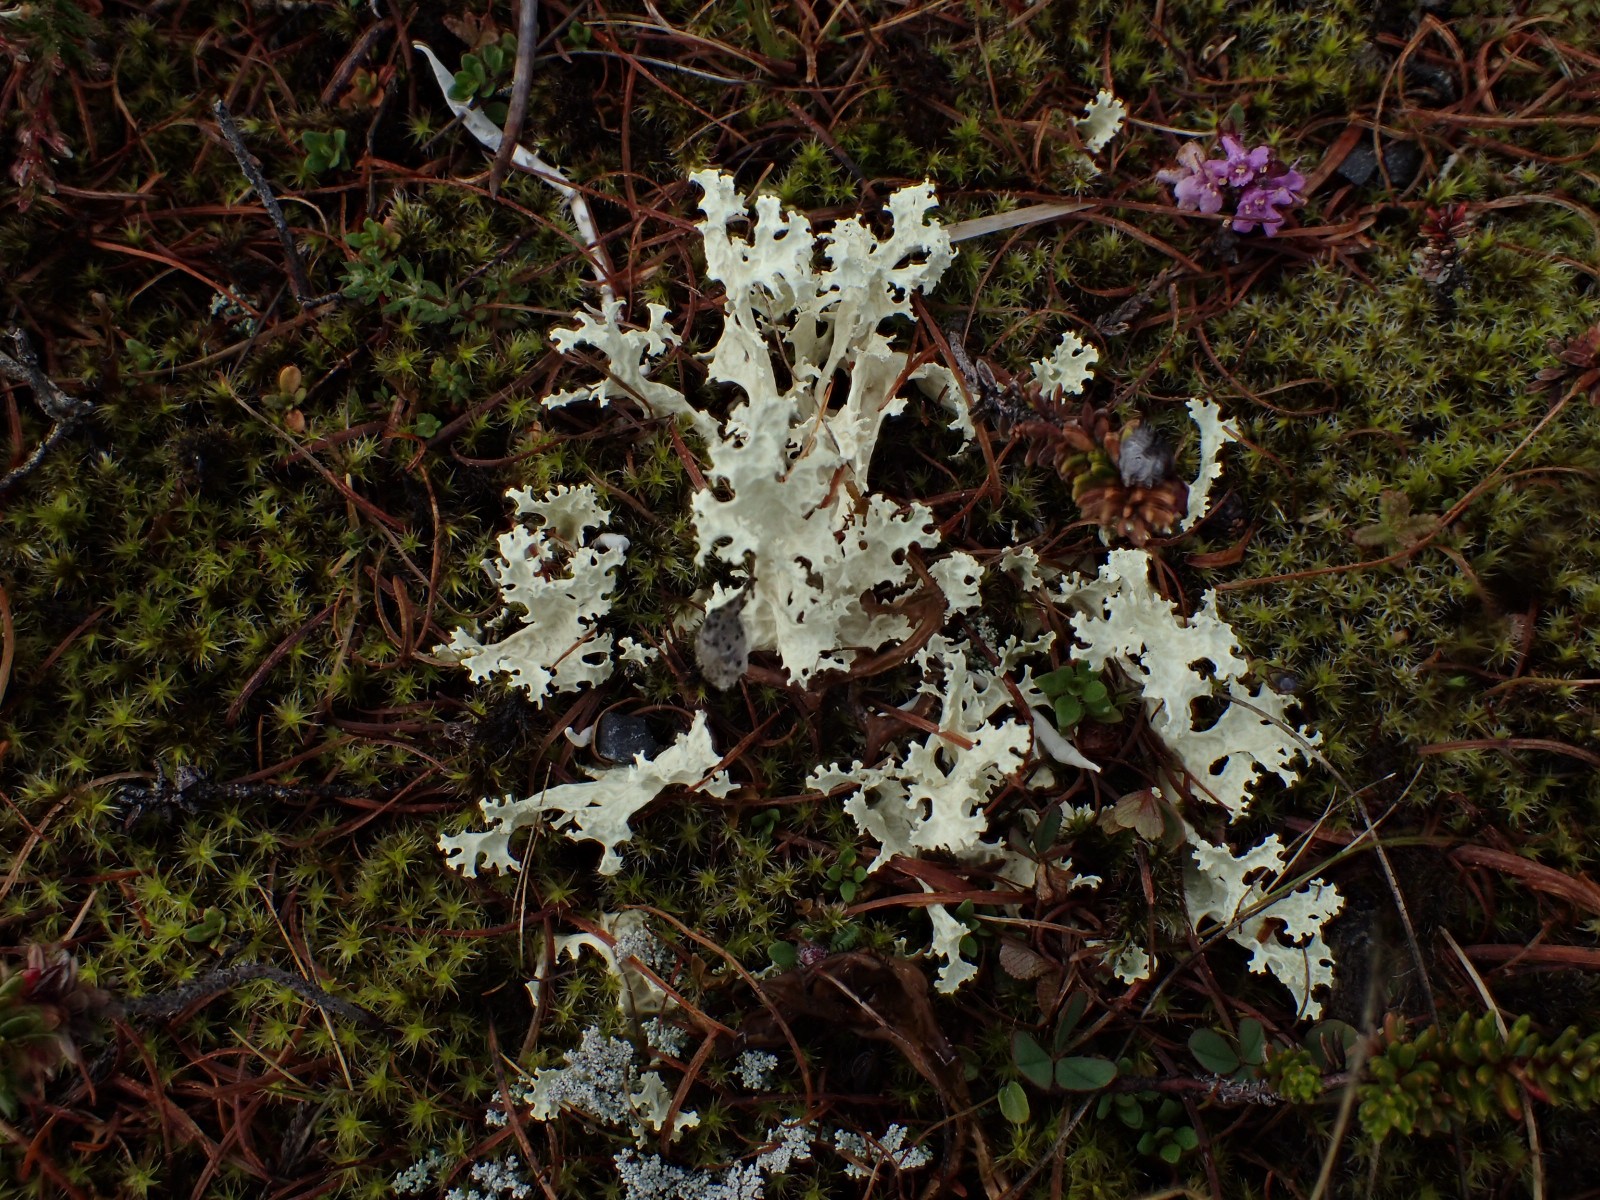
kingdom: Fungi
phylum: Ascomycota
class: Lecanoromycetes
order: Lecanorales
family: Parmeliaceae
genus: Nephromopsis
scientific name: Nephromopsis nivalis
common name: sne-kruslav
